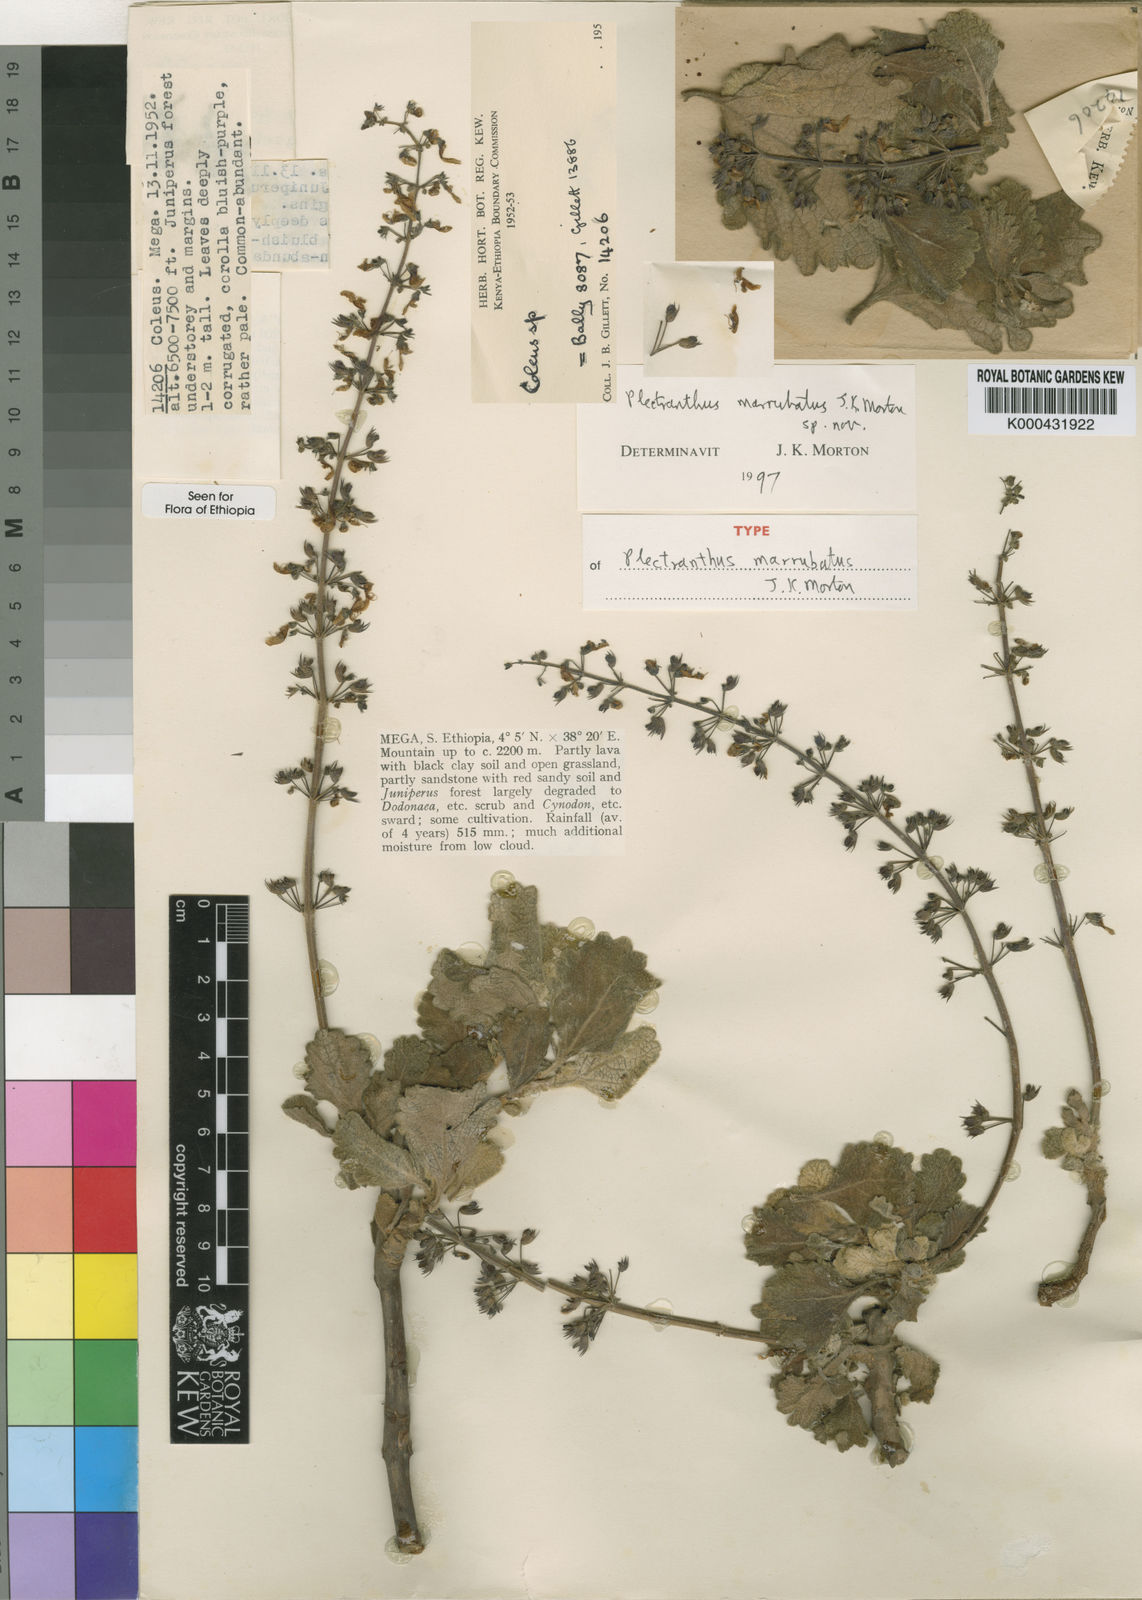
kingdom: Plantae
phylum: Tracheophyta
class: Magnoliopsida
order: Lamiales
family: Lamiaceae
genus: Coleus
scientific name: Coleus marrubatus
